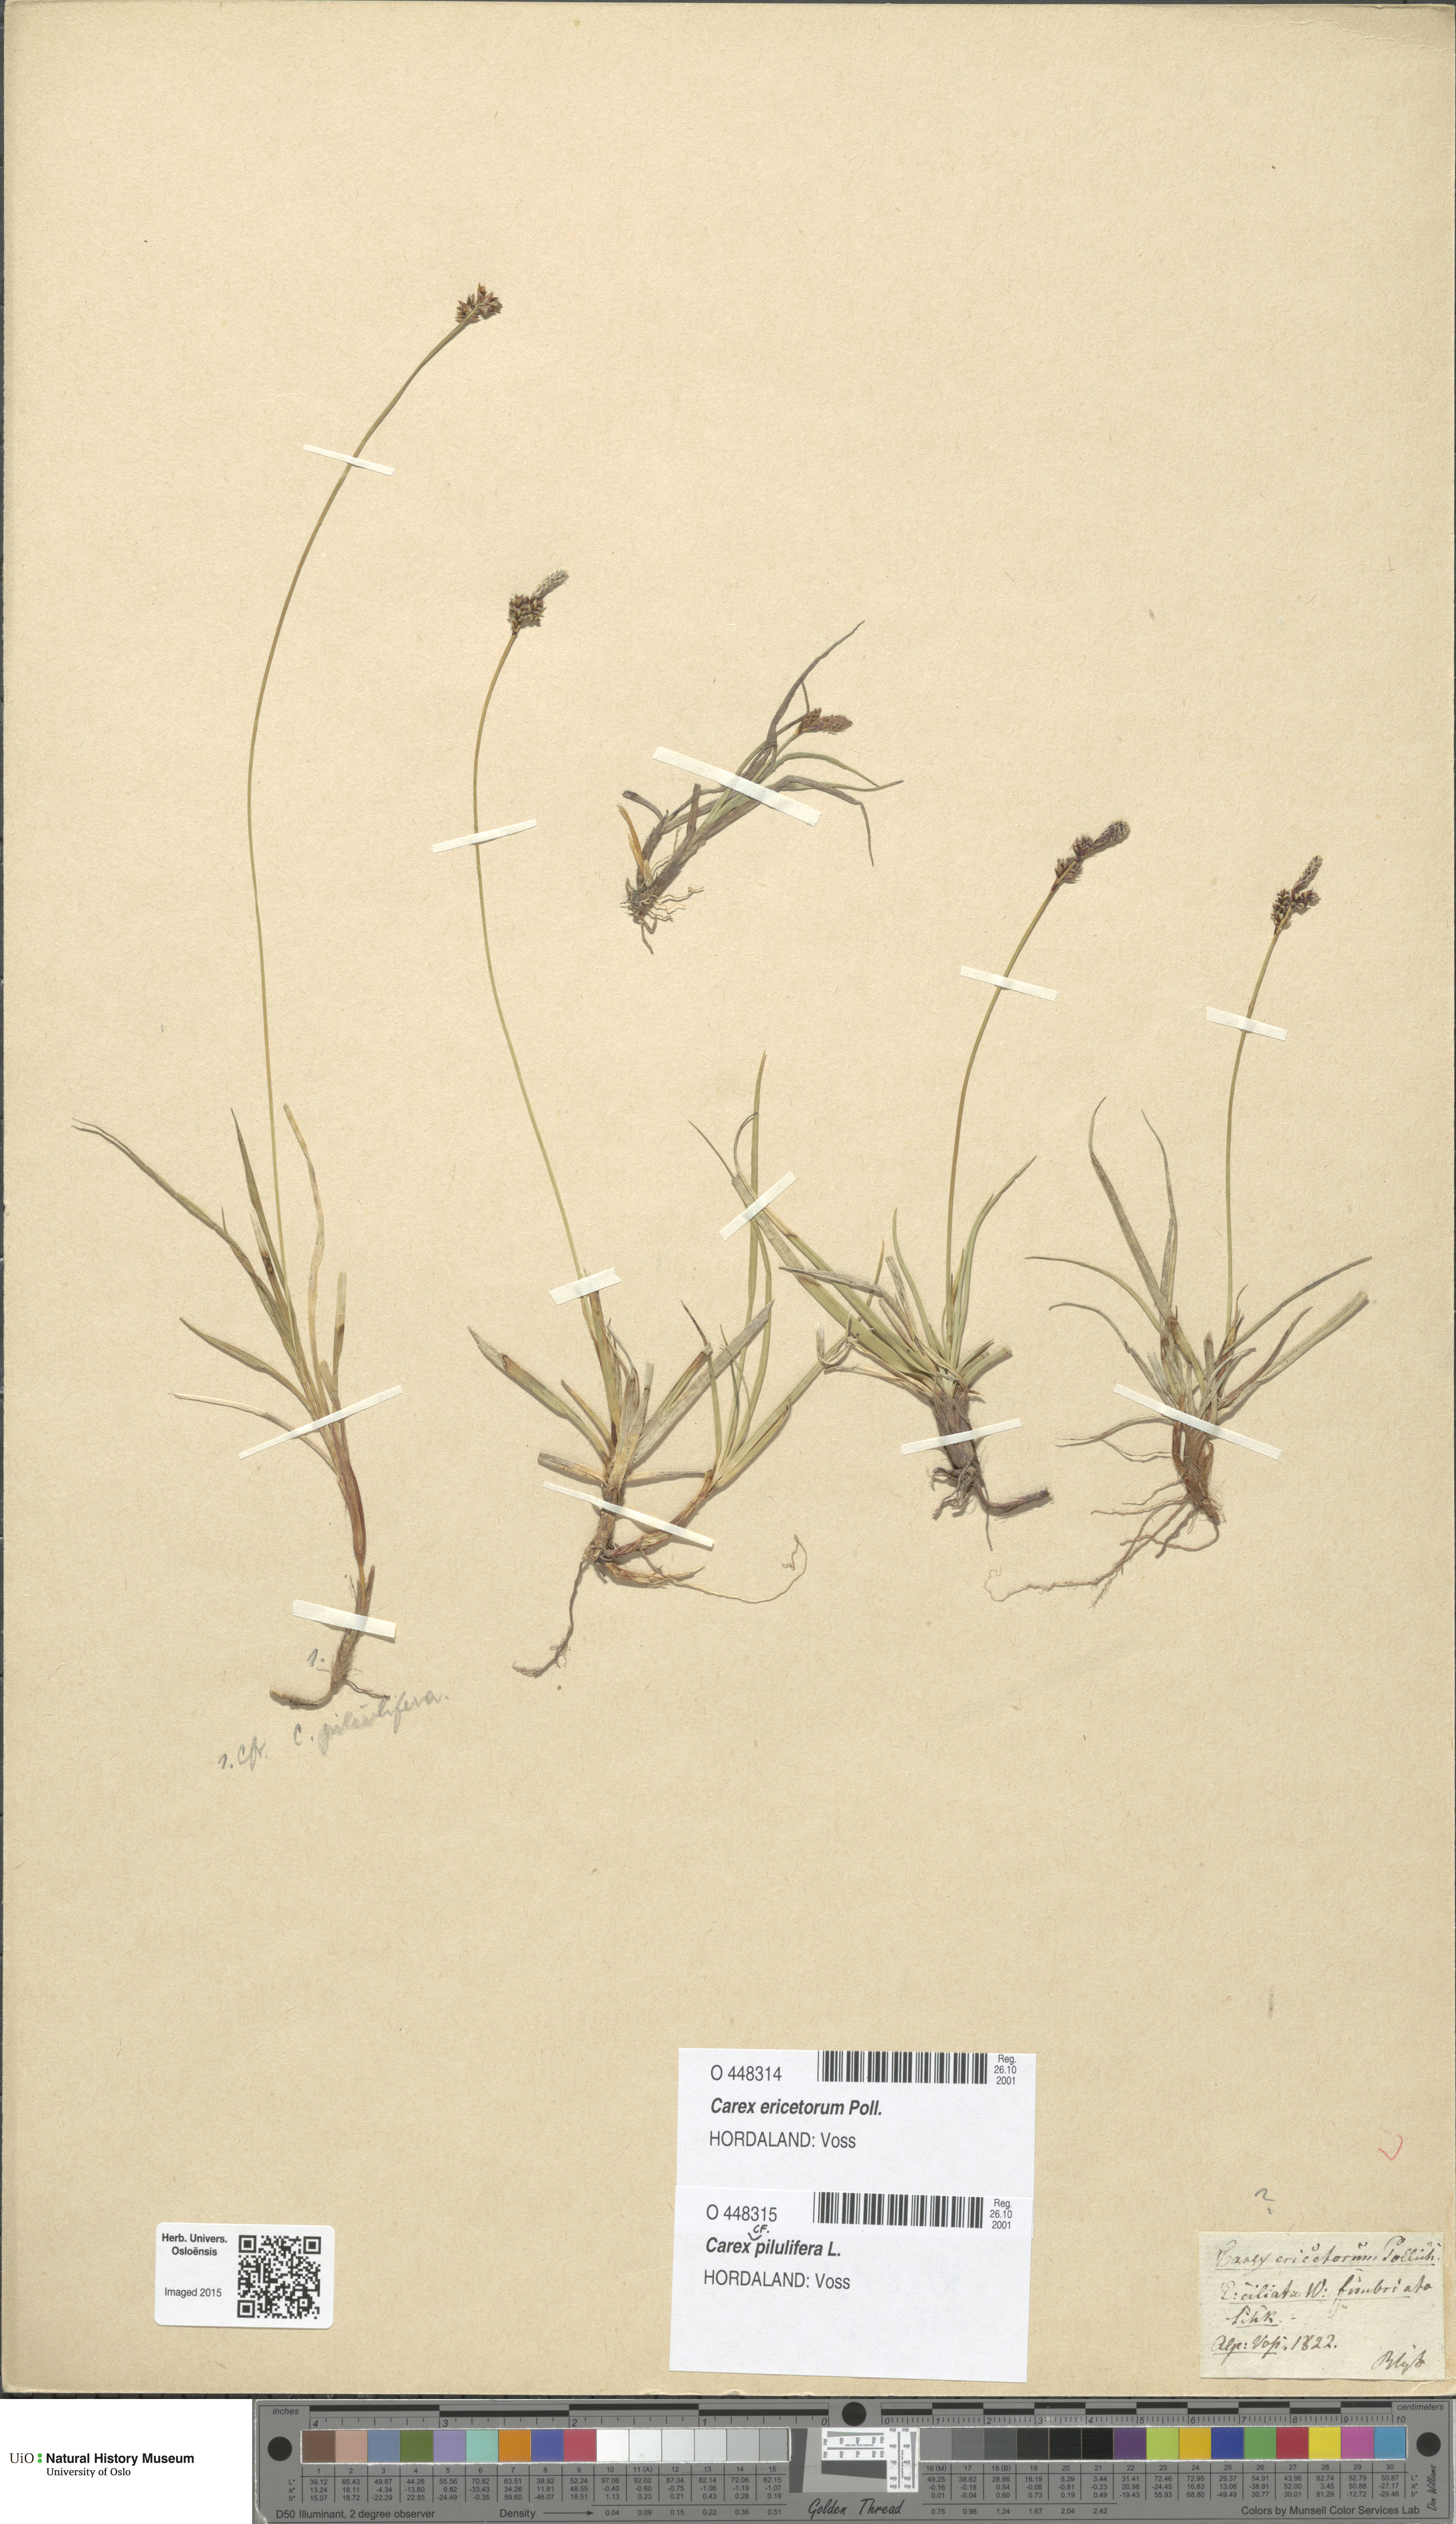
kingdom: Plantae
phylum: Tracheophyta
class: Liliopsida
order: Poales
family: Cyperaceae
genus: Carex
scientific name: Carex ericetorum
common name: Rare spring-sedge
